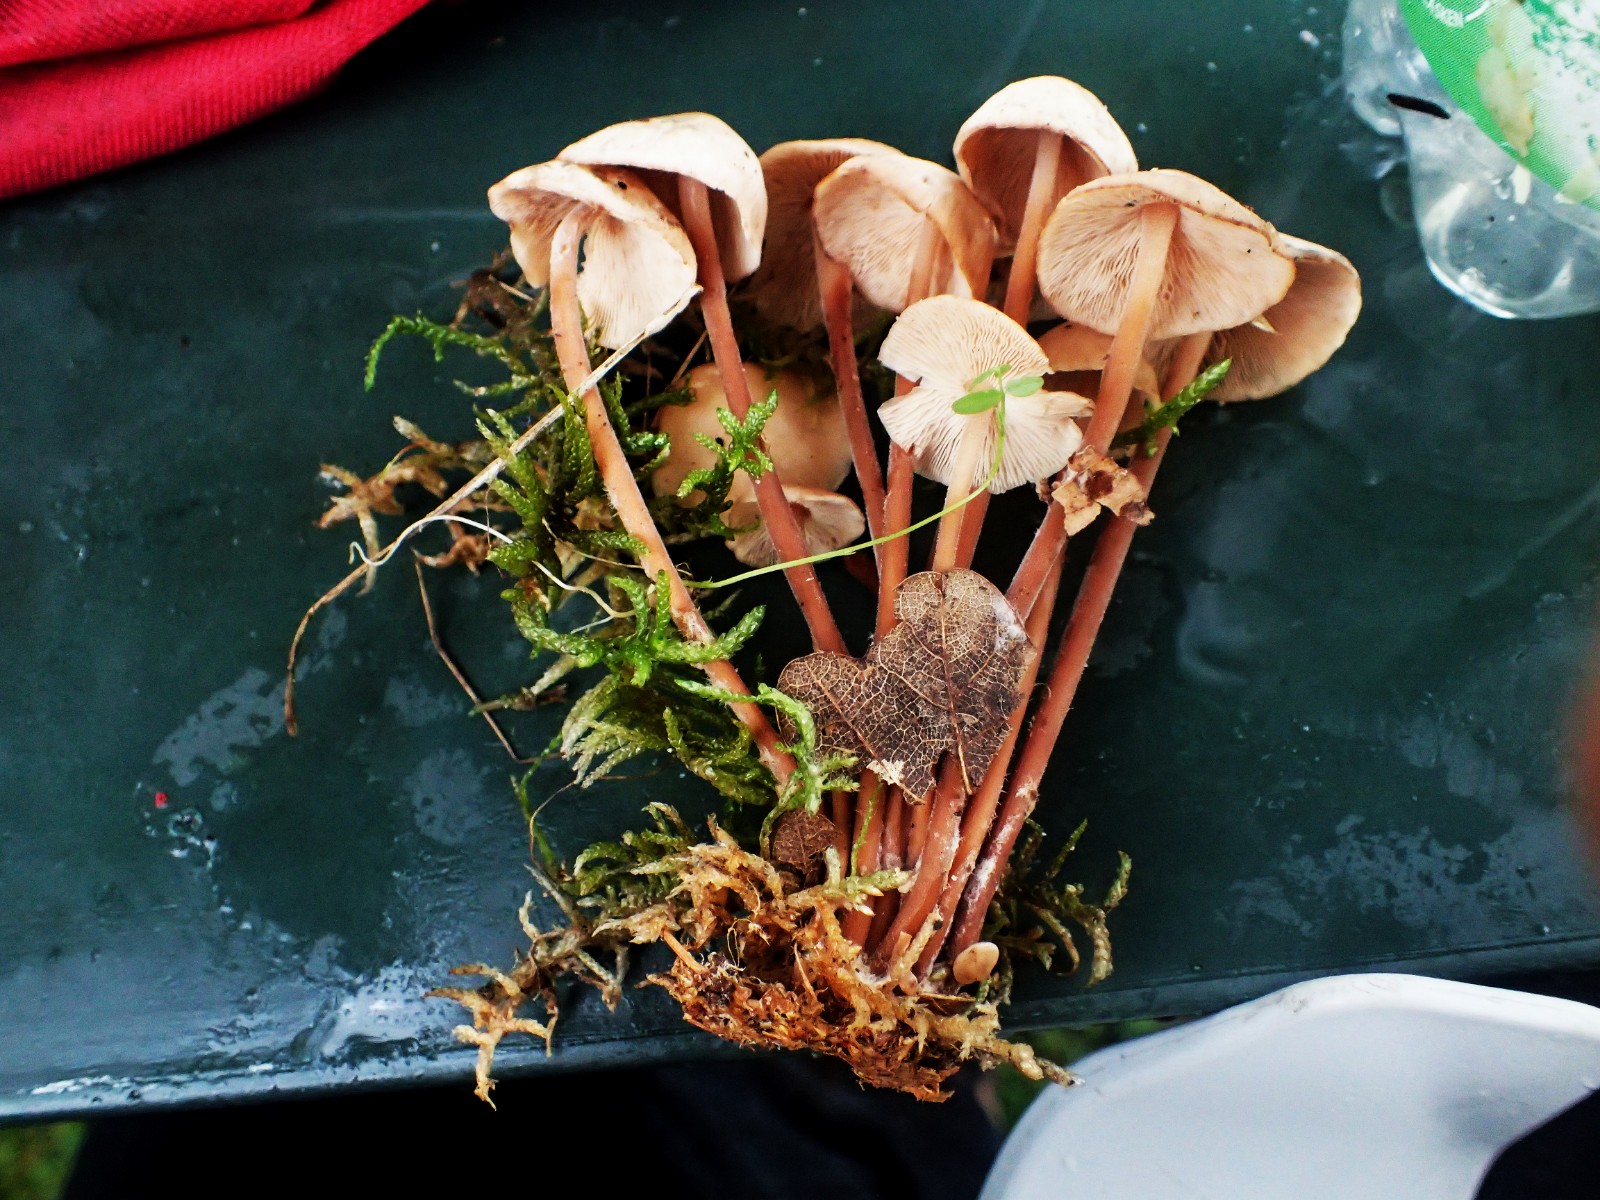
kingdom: Fungi
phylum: Basidiomycota
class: Agaricomycetes
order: Agaricales
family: Omphalotaceae
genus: Collybiopsis
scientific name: Collybiopsis confluens
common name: knippe-fladhat
